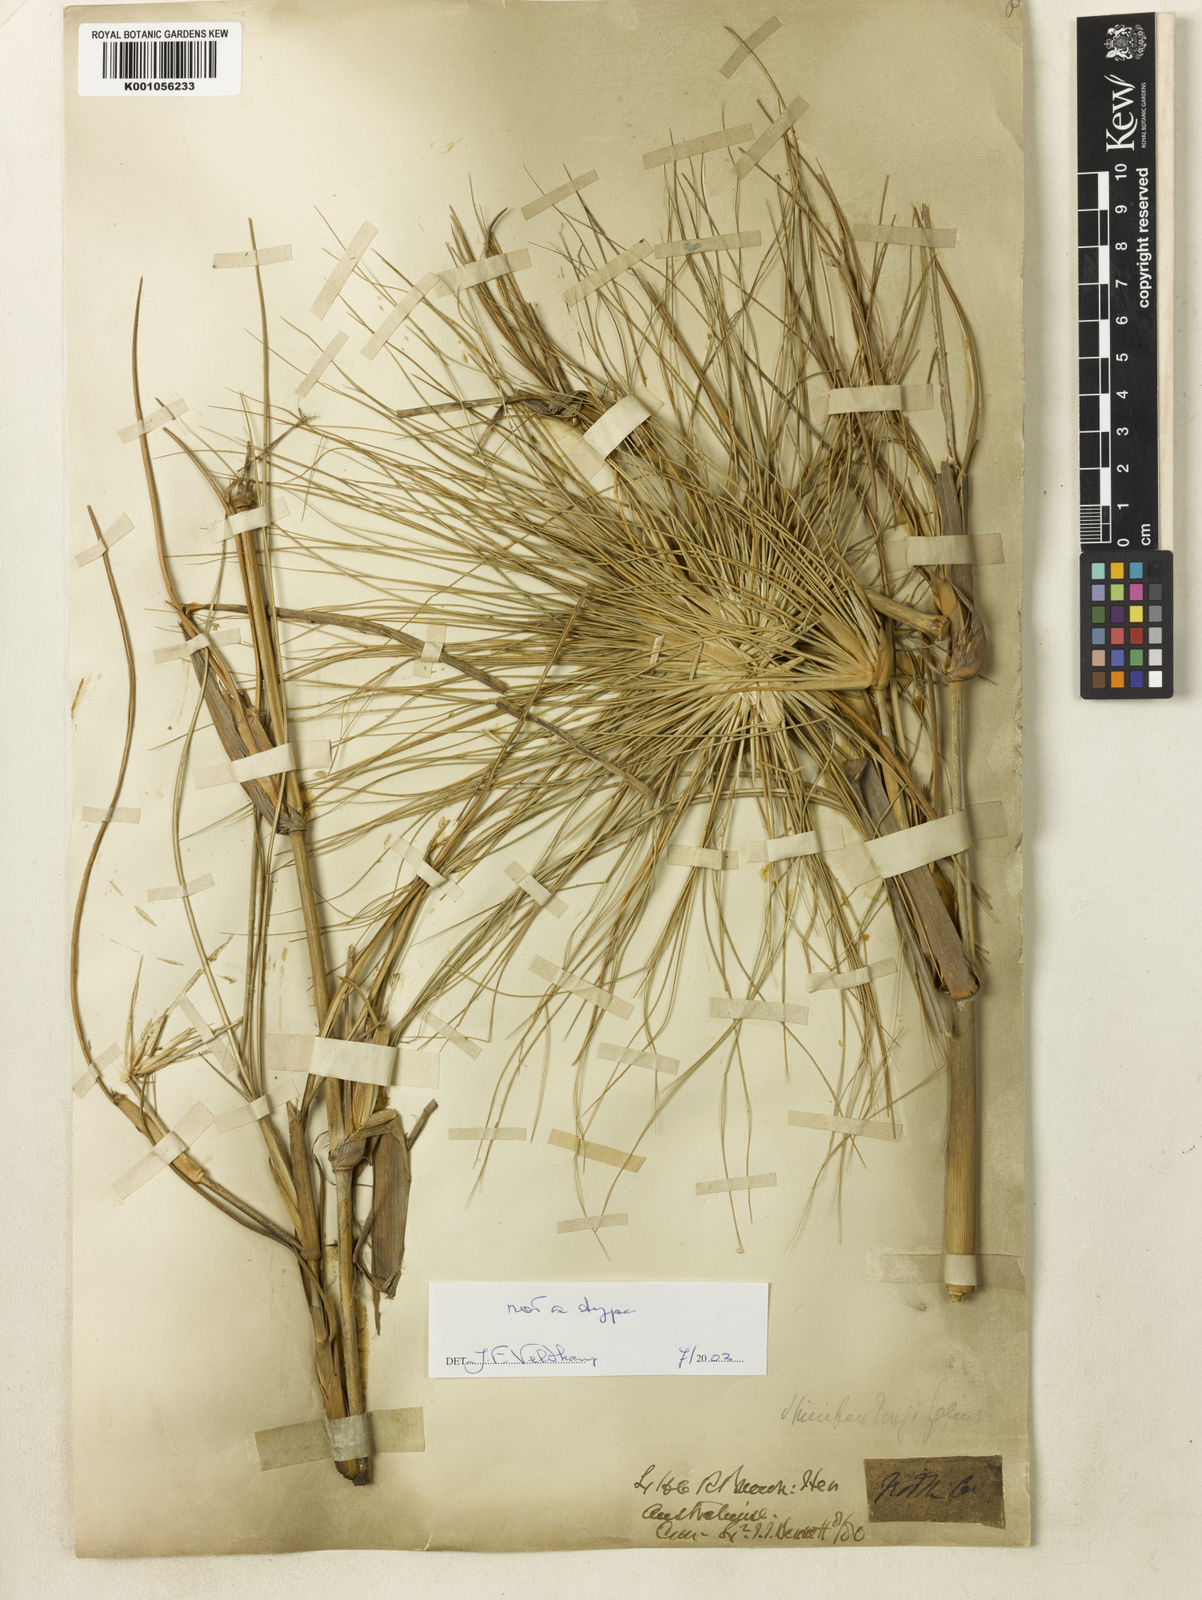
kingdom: Plantae
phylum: Tracheophyta
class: Liliopsida
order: Poales
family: Poaceae
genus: Spinifex
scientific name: Spinifex longifolius
